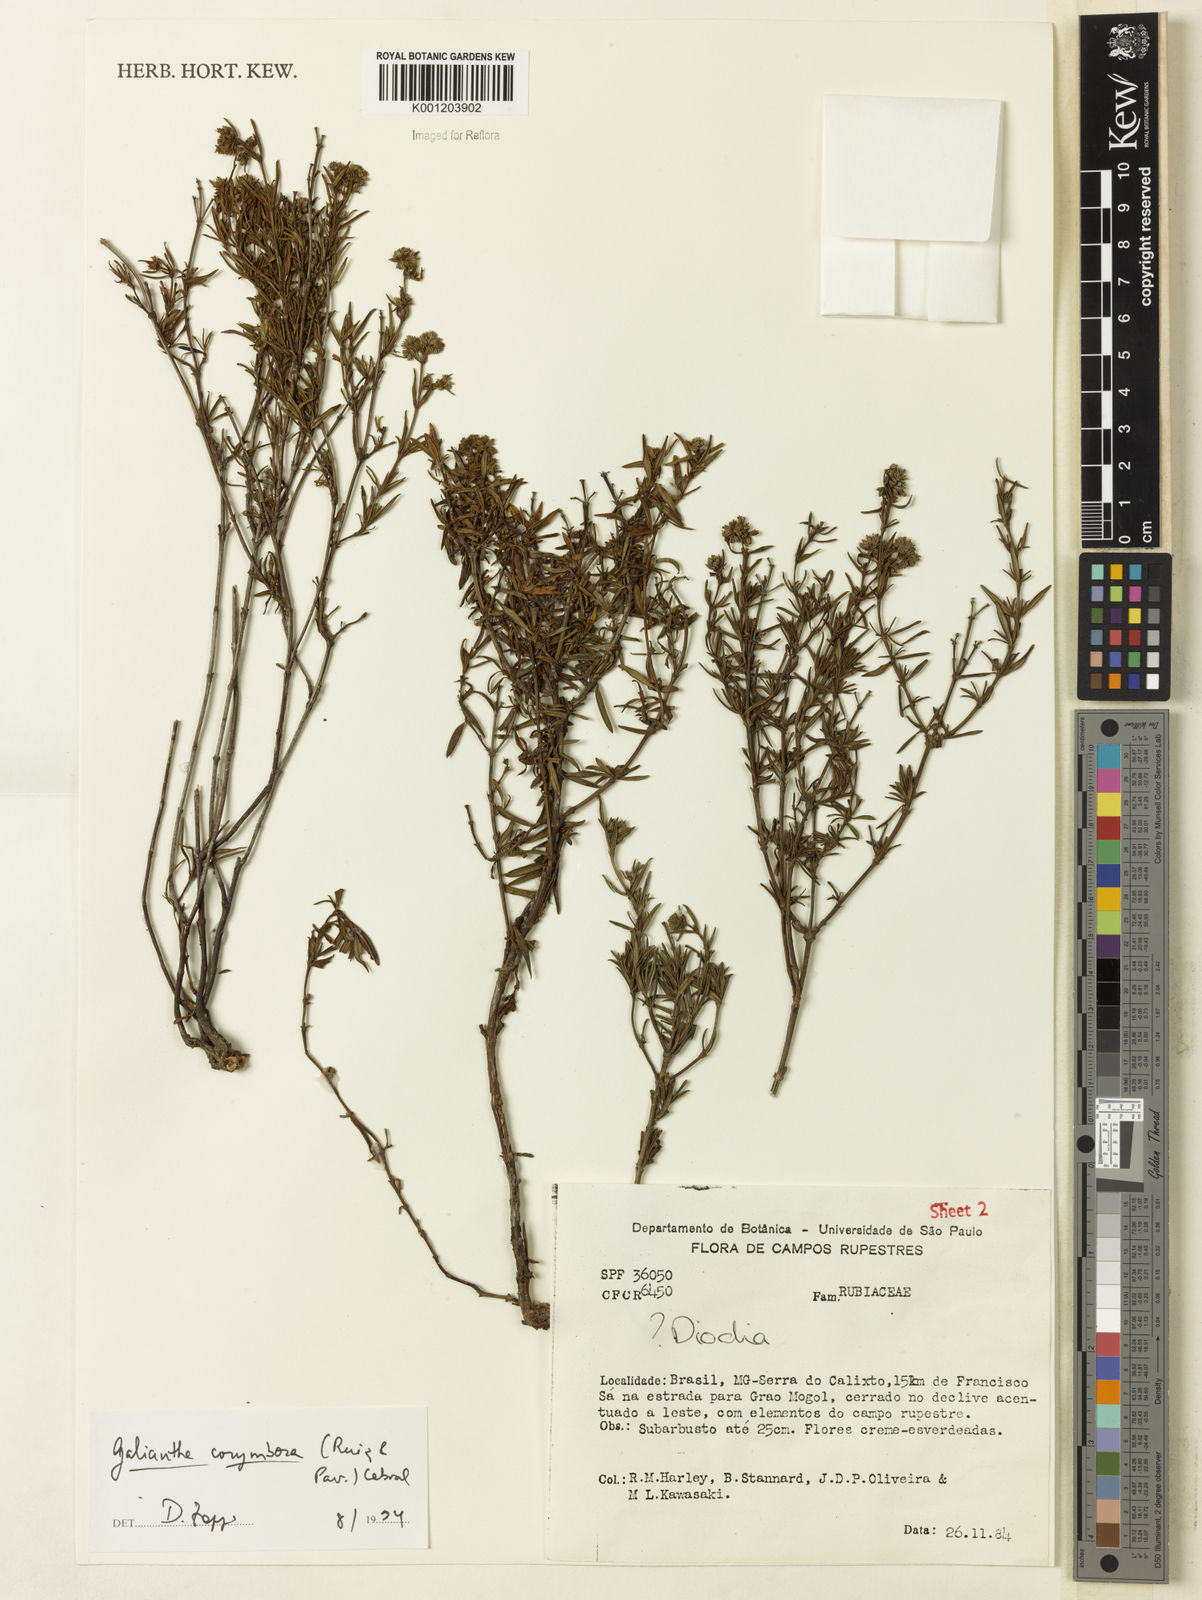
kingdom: Plantae
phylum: Tracheophyta
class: Magnoliopsida
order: Gentianales
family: Rubiaceae
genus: Galianthe
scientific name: Galianthe peruviana
